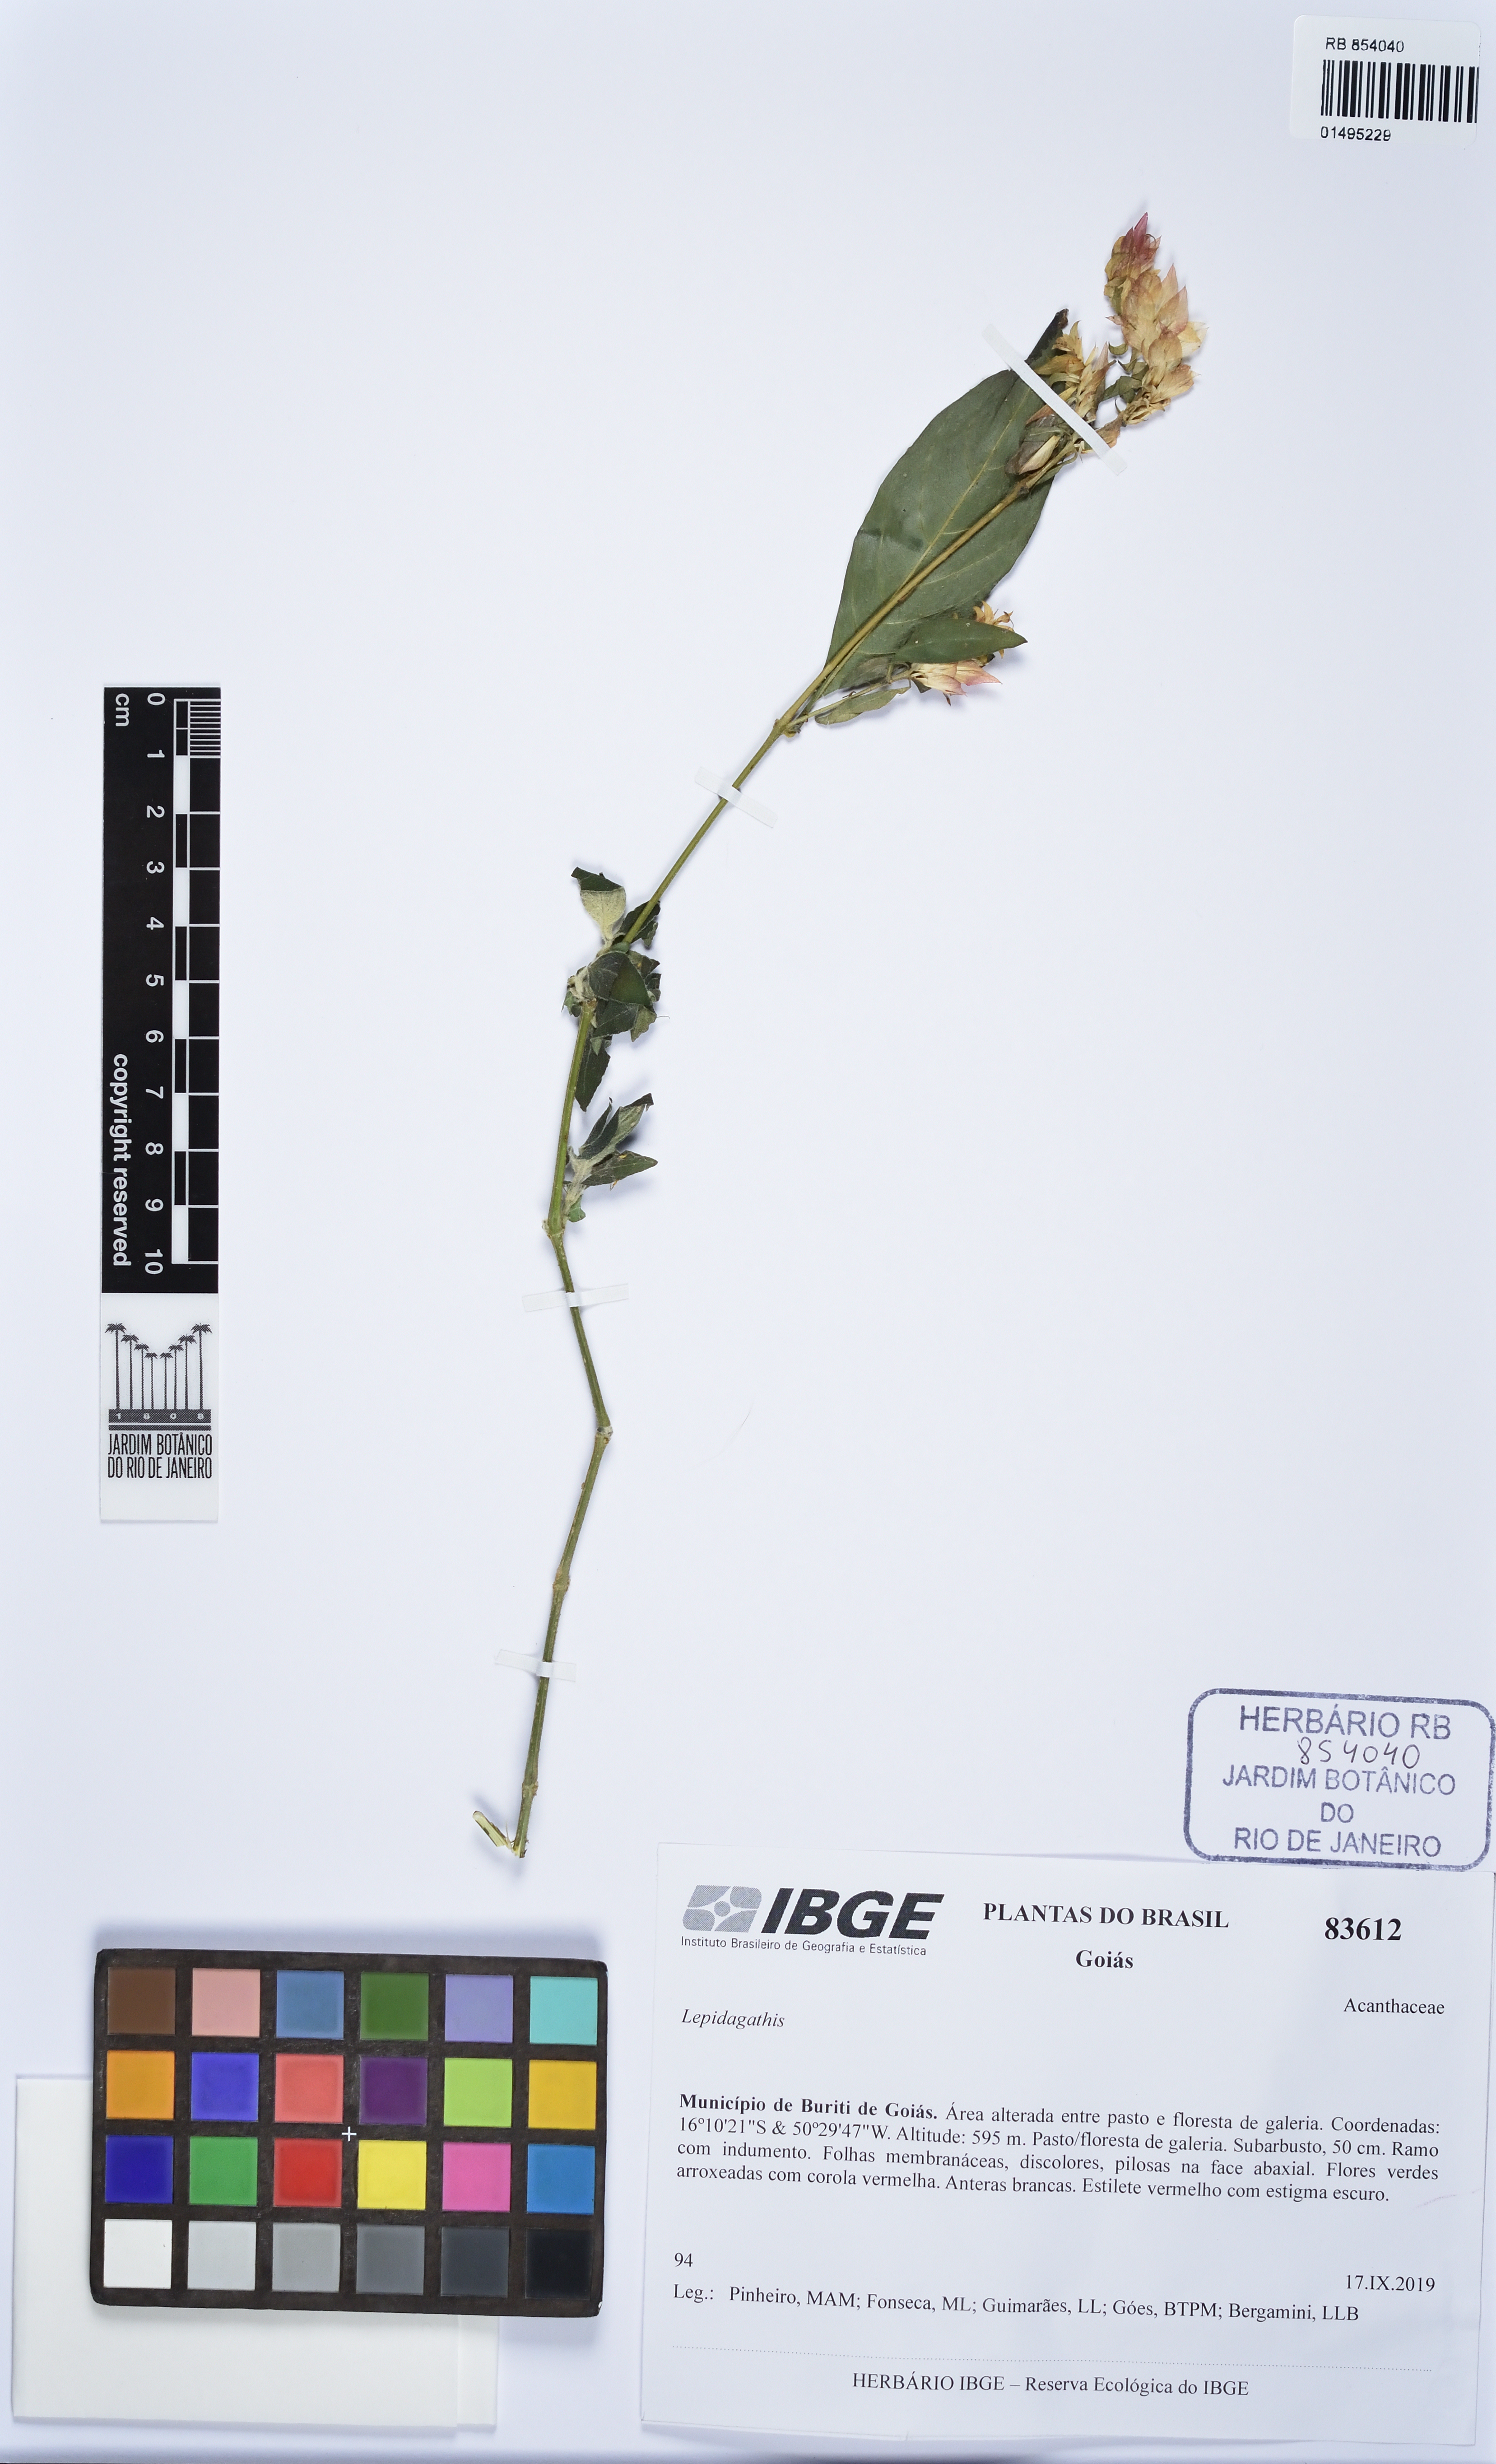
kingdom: Plantae
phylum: Tracheophyta
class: Magnoliopsida
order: Lamiales
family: Acanthaceae
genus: Lepidagathis
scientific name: Lepidagathis
